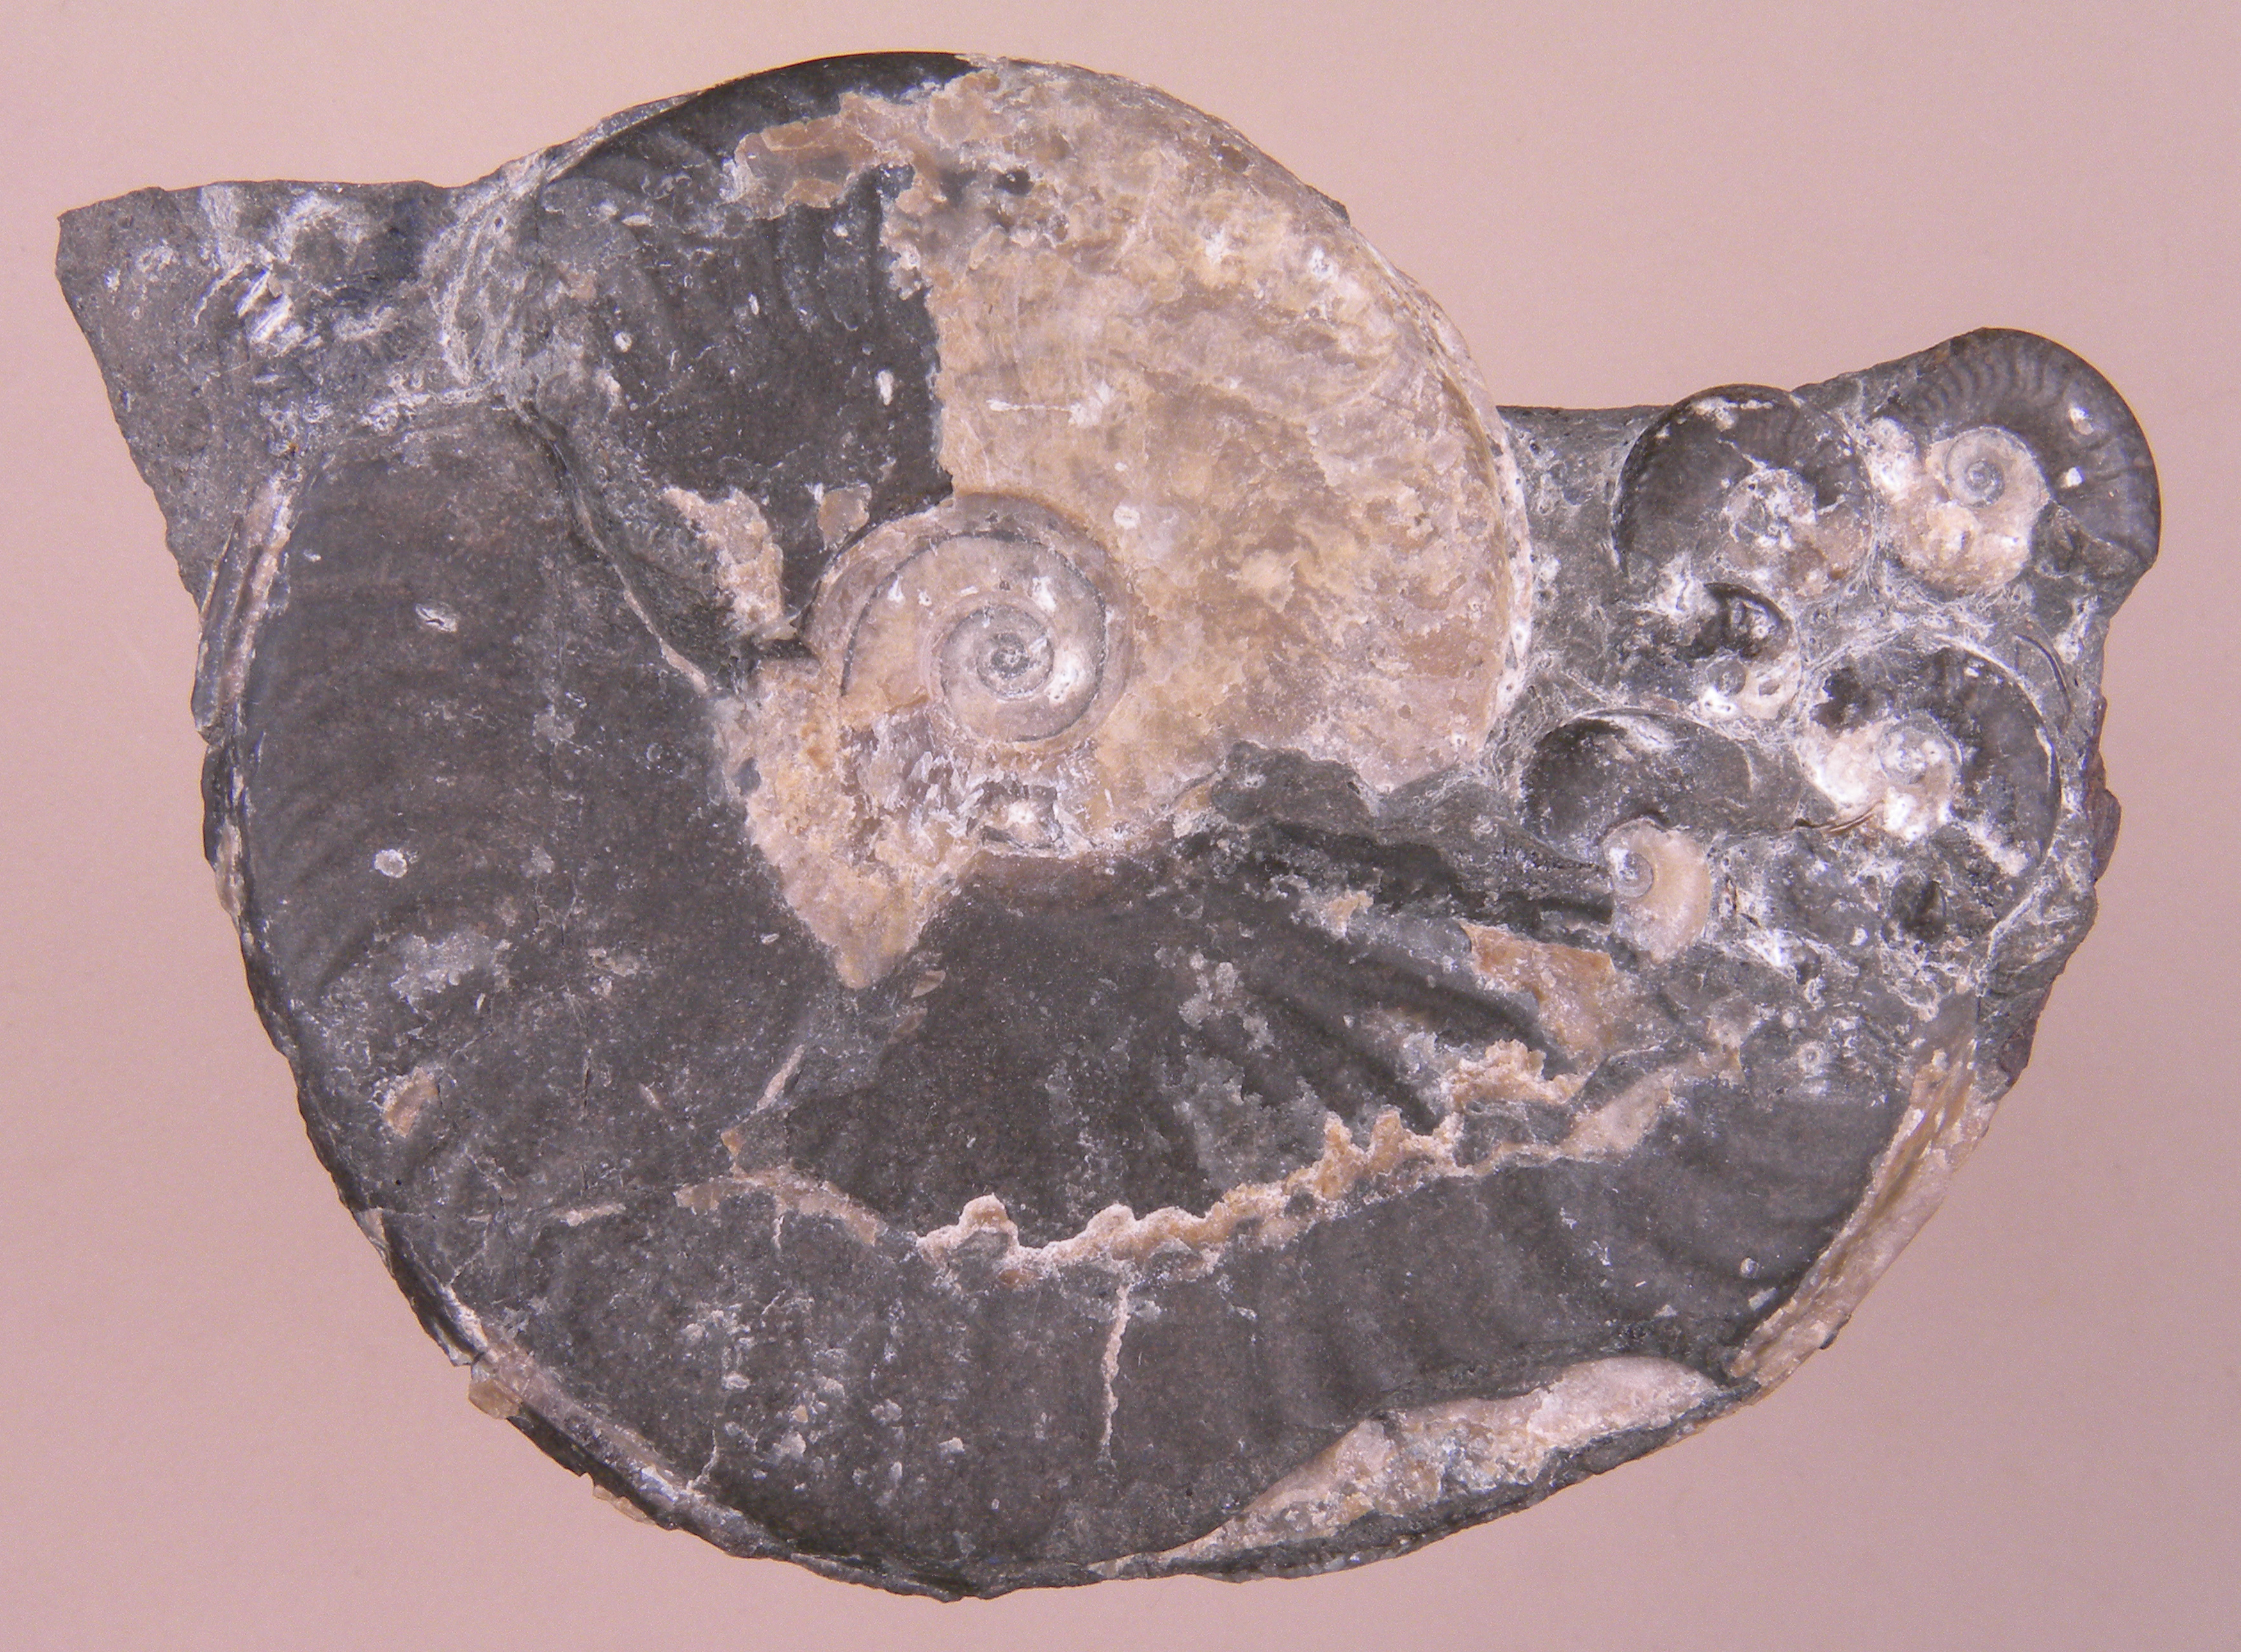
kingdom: Animalia
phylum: Mollusca
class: Cephalopoda
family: Hildoceratidae
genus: Eleganticeras
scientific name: Eleganticeras exaratum
